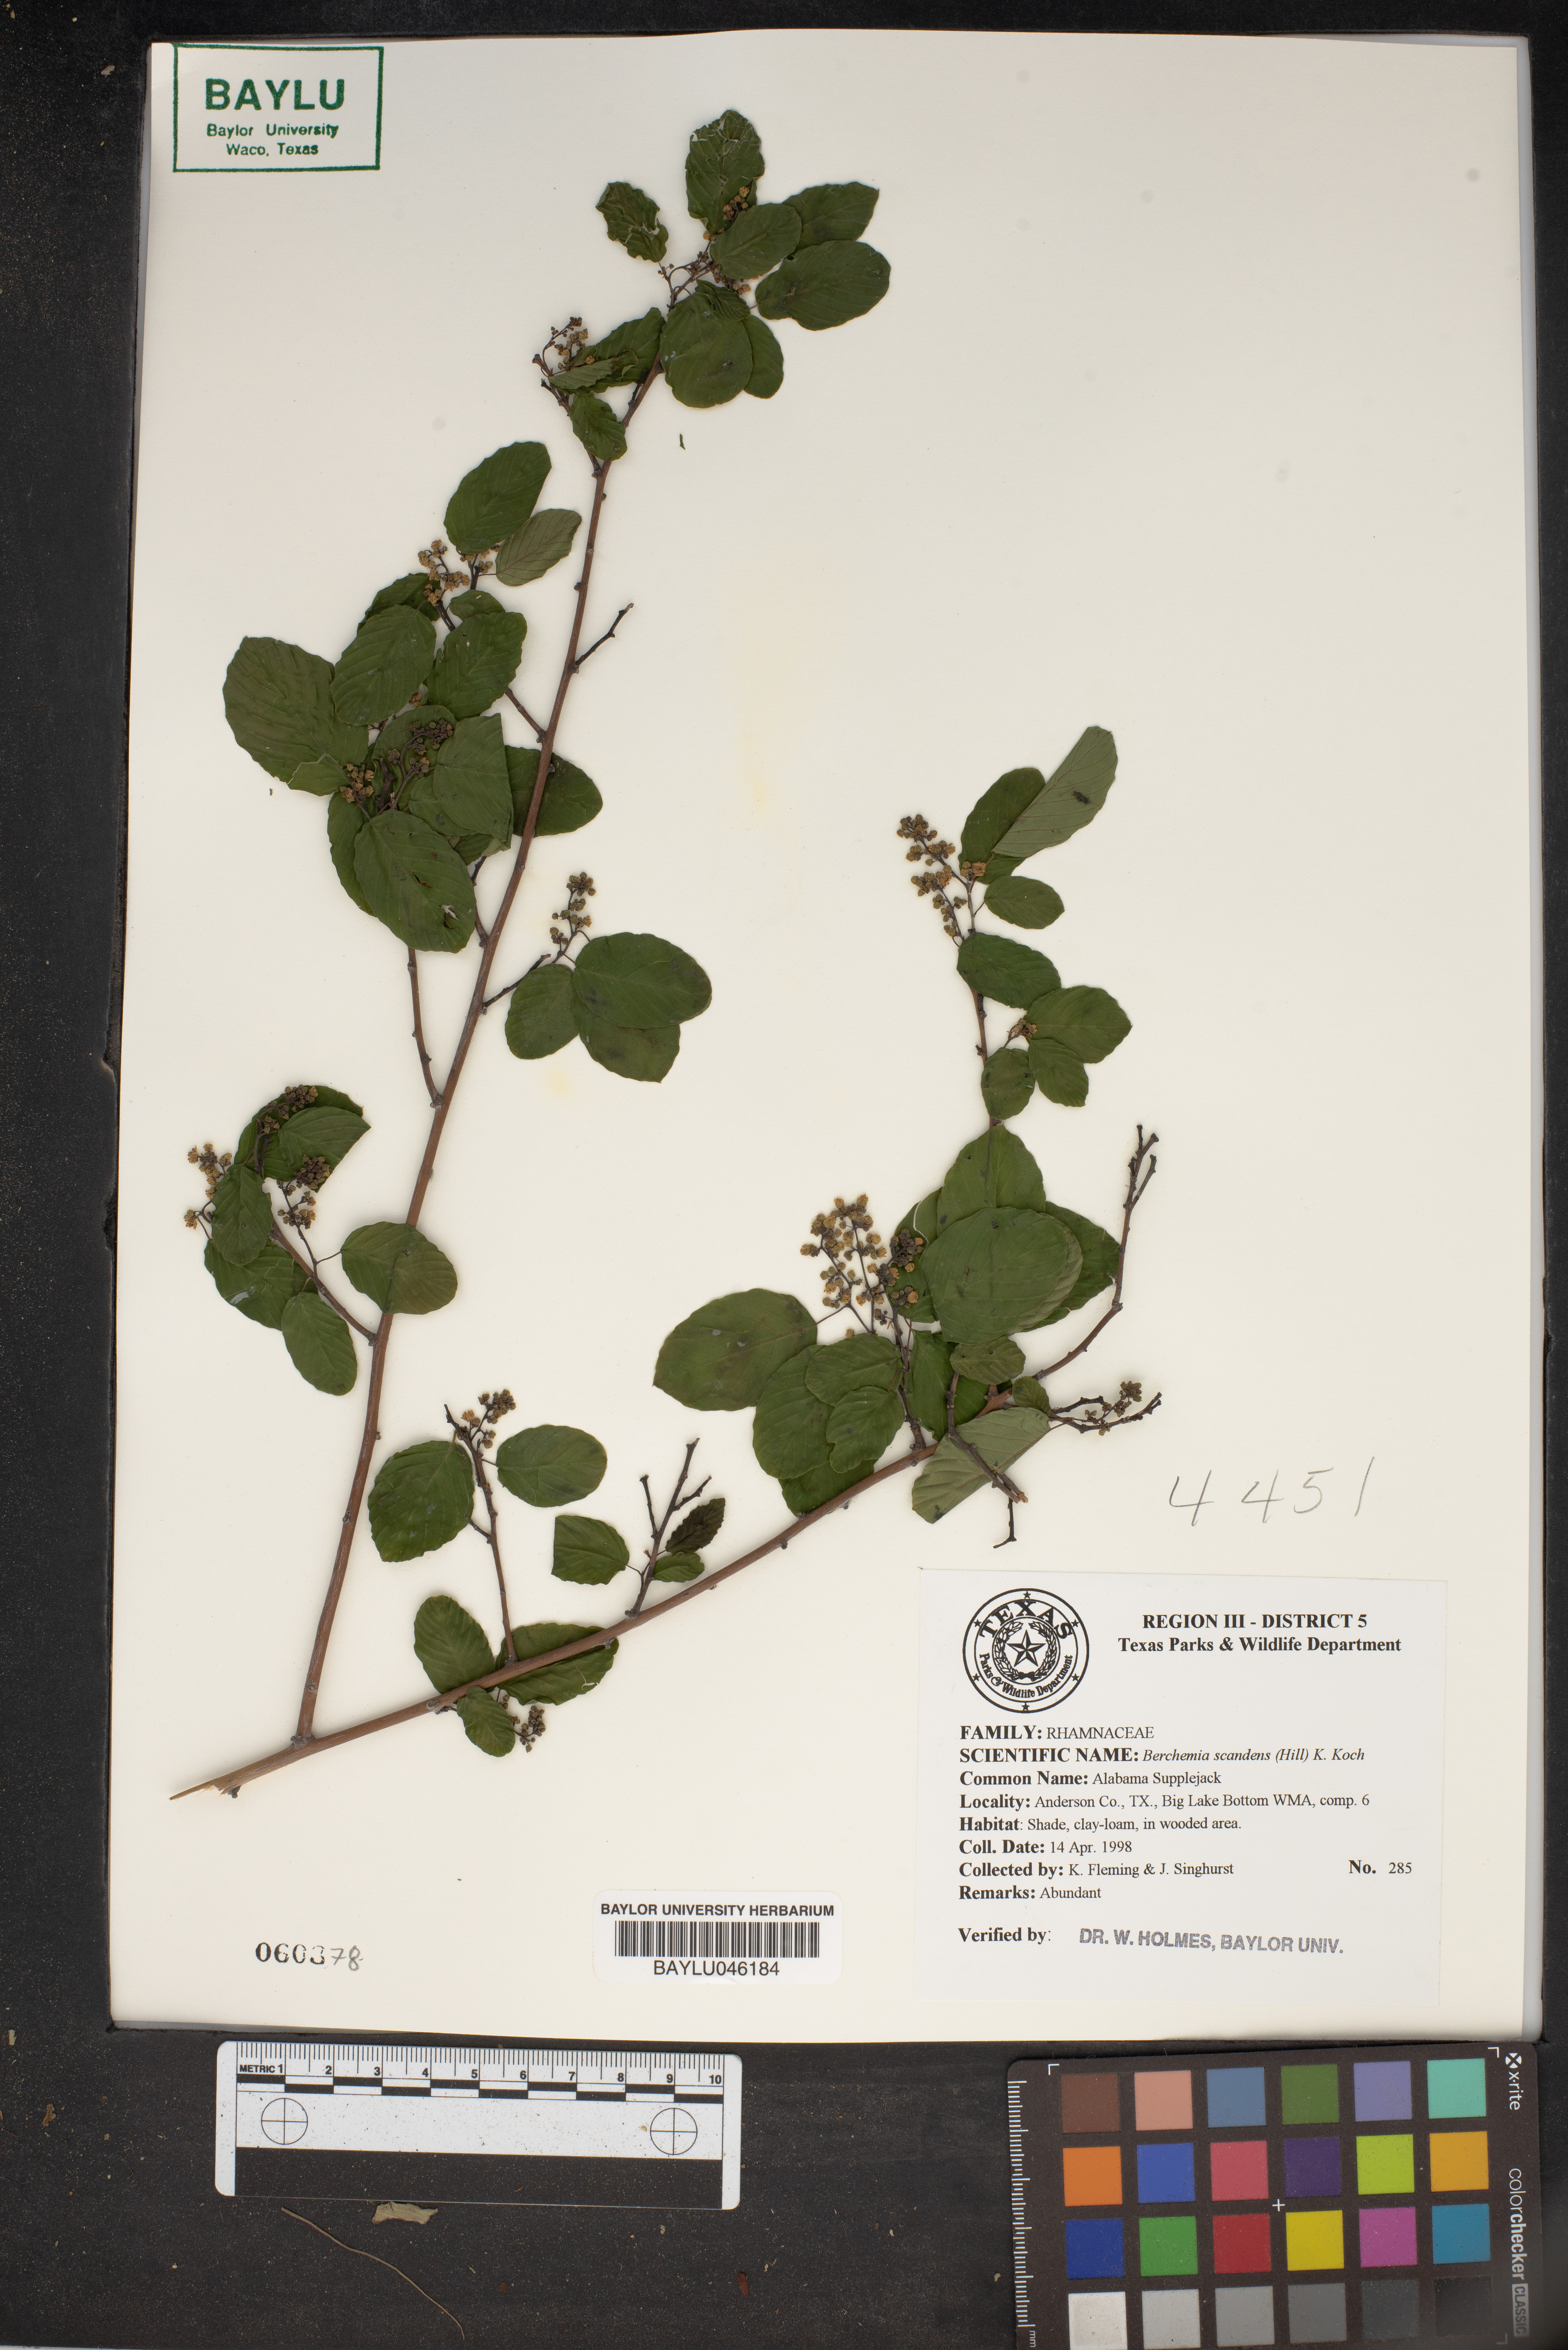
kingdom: Plantae
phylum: Tracheophyta
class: Magnoliopsida
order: Rosales
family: Rhamnaceae
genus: Berchemia
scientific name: Berchemia scandens
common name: Supplejack
